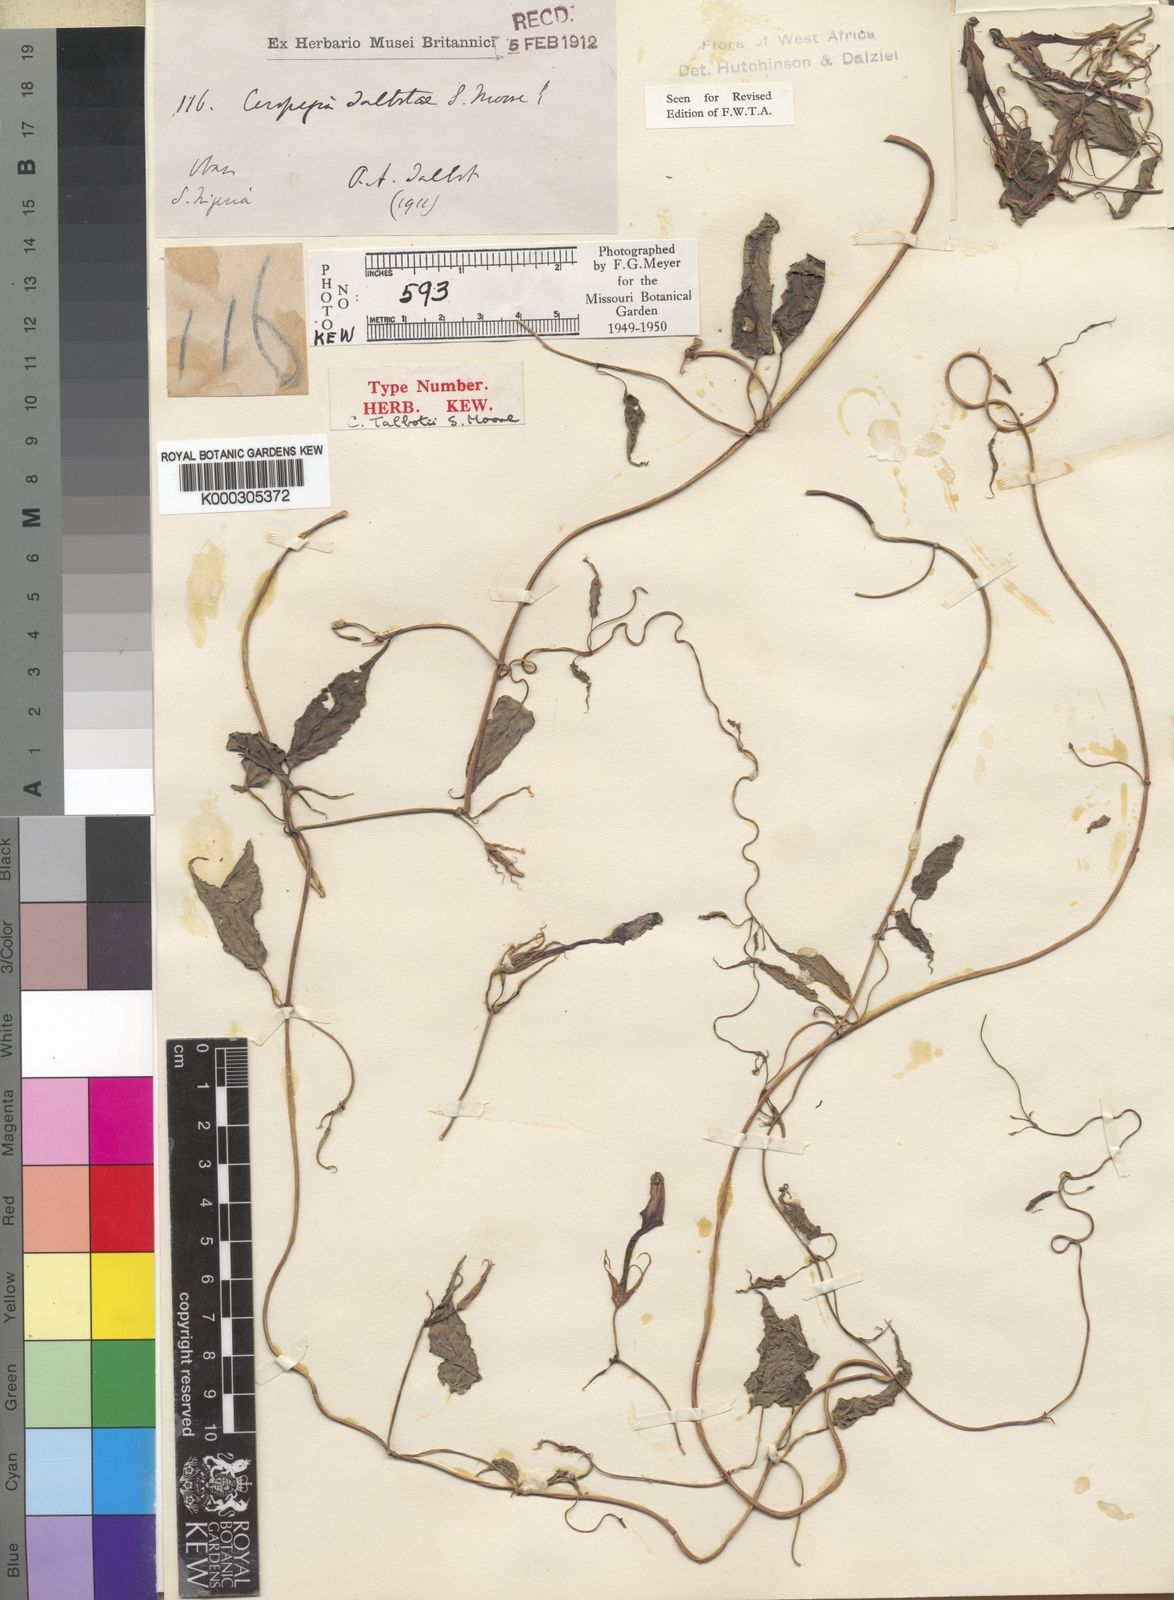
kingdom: Plantae
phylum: Tracheophyta
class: Magnoliopsida
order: Gentianales
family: Apocynaceae
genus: Ceropegia
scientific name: Ceropegia talbotii
